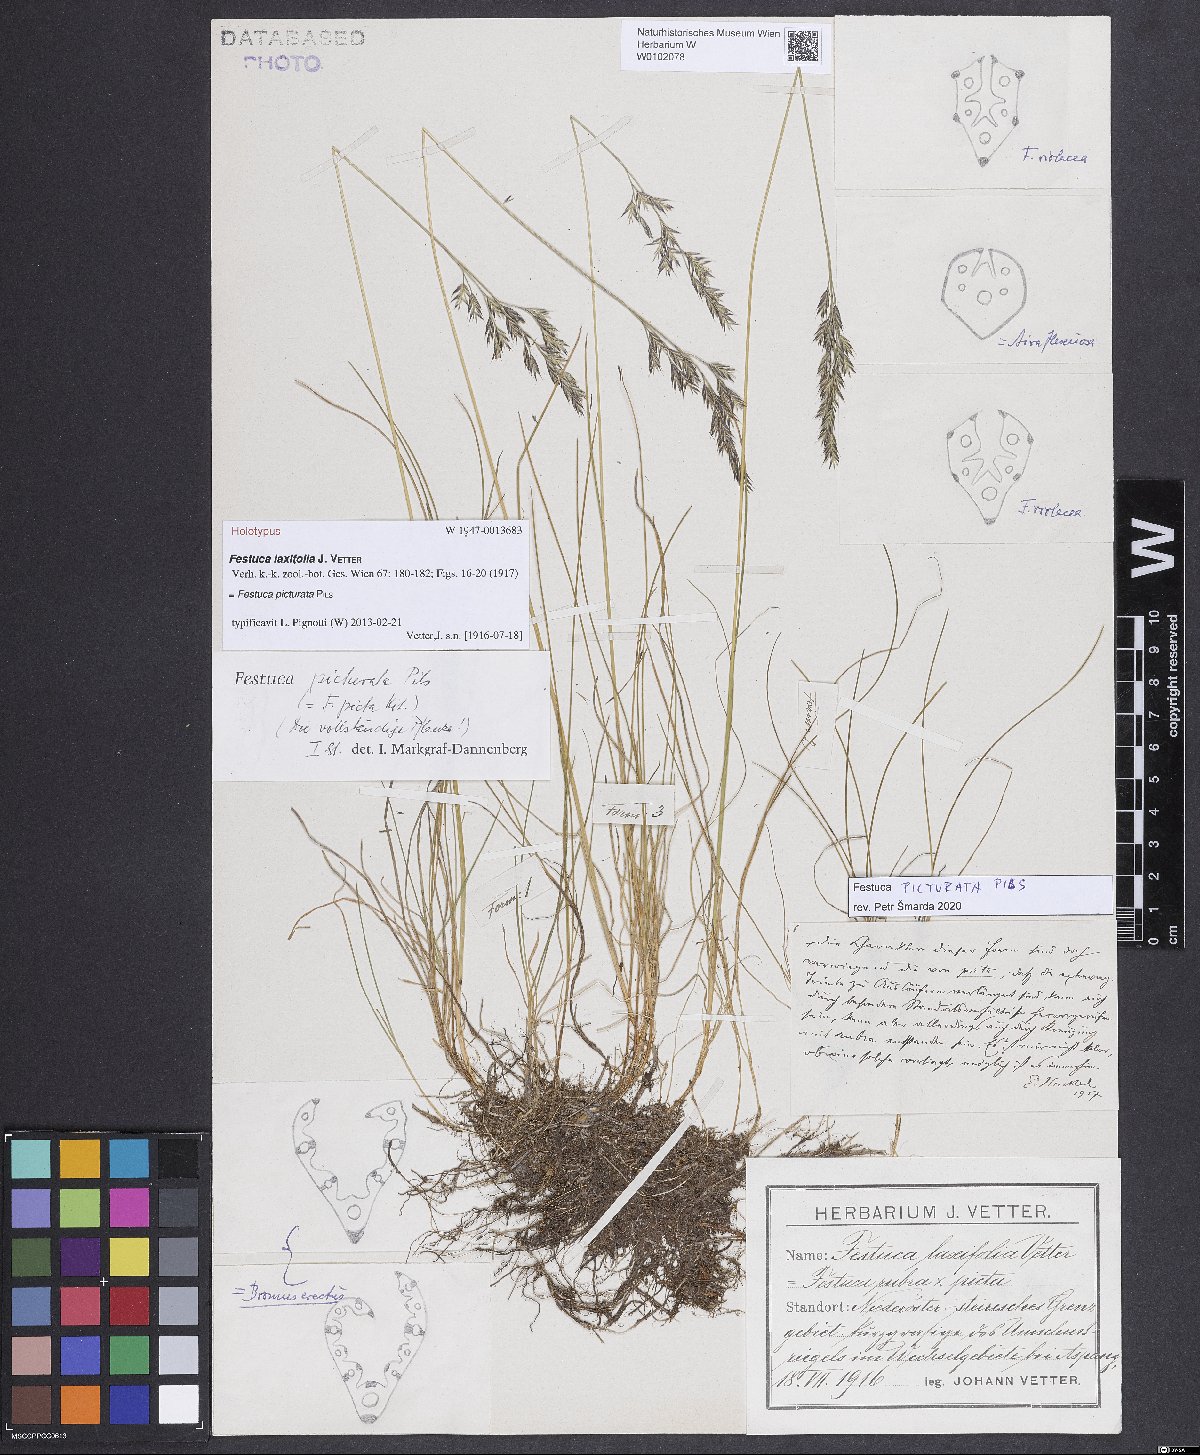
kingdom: Plantae
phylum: Tracheophyta
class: Liliopsida
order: Poales
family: Poaceae
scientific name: Poaceae
